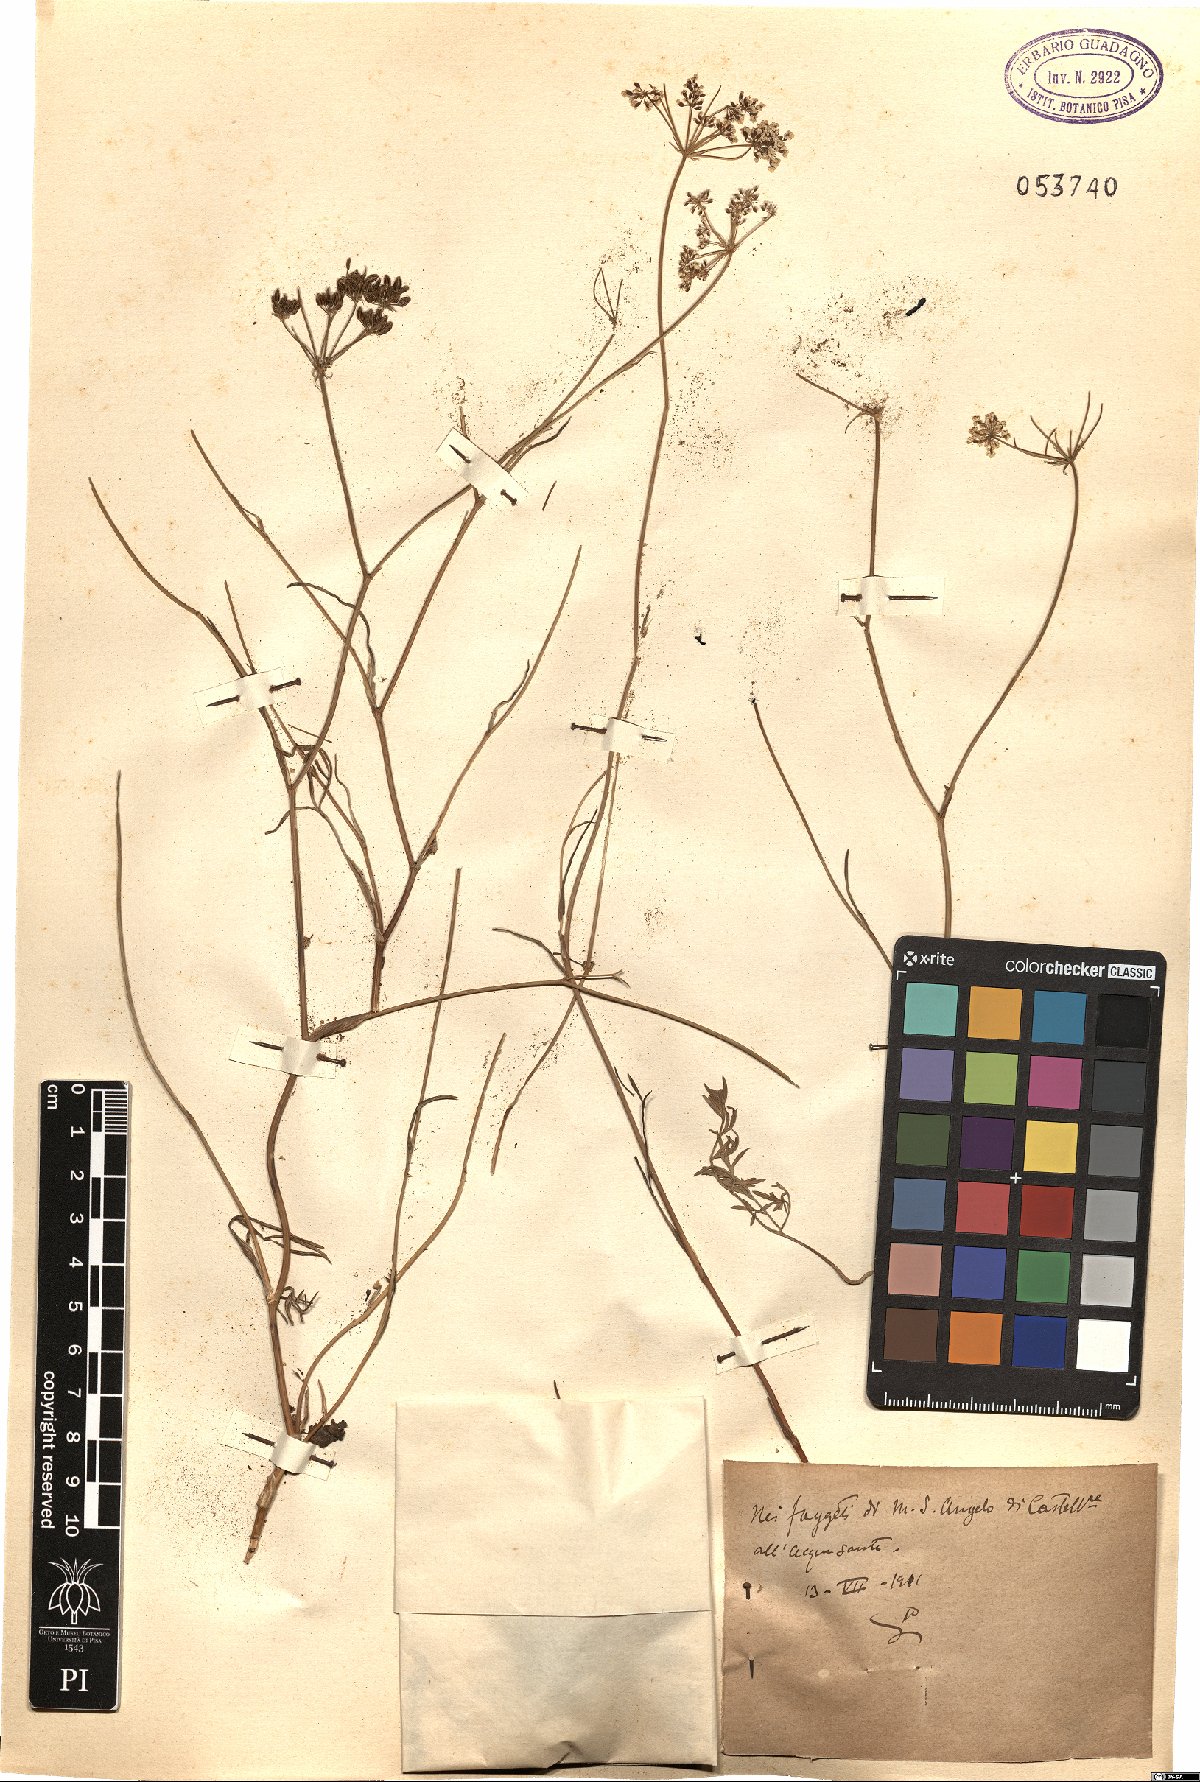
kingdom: Plantae
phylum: Tracheophyta
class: Magnoliopsida
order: Apiales
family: Apiaceae
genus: Bunium
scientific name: Bunium
